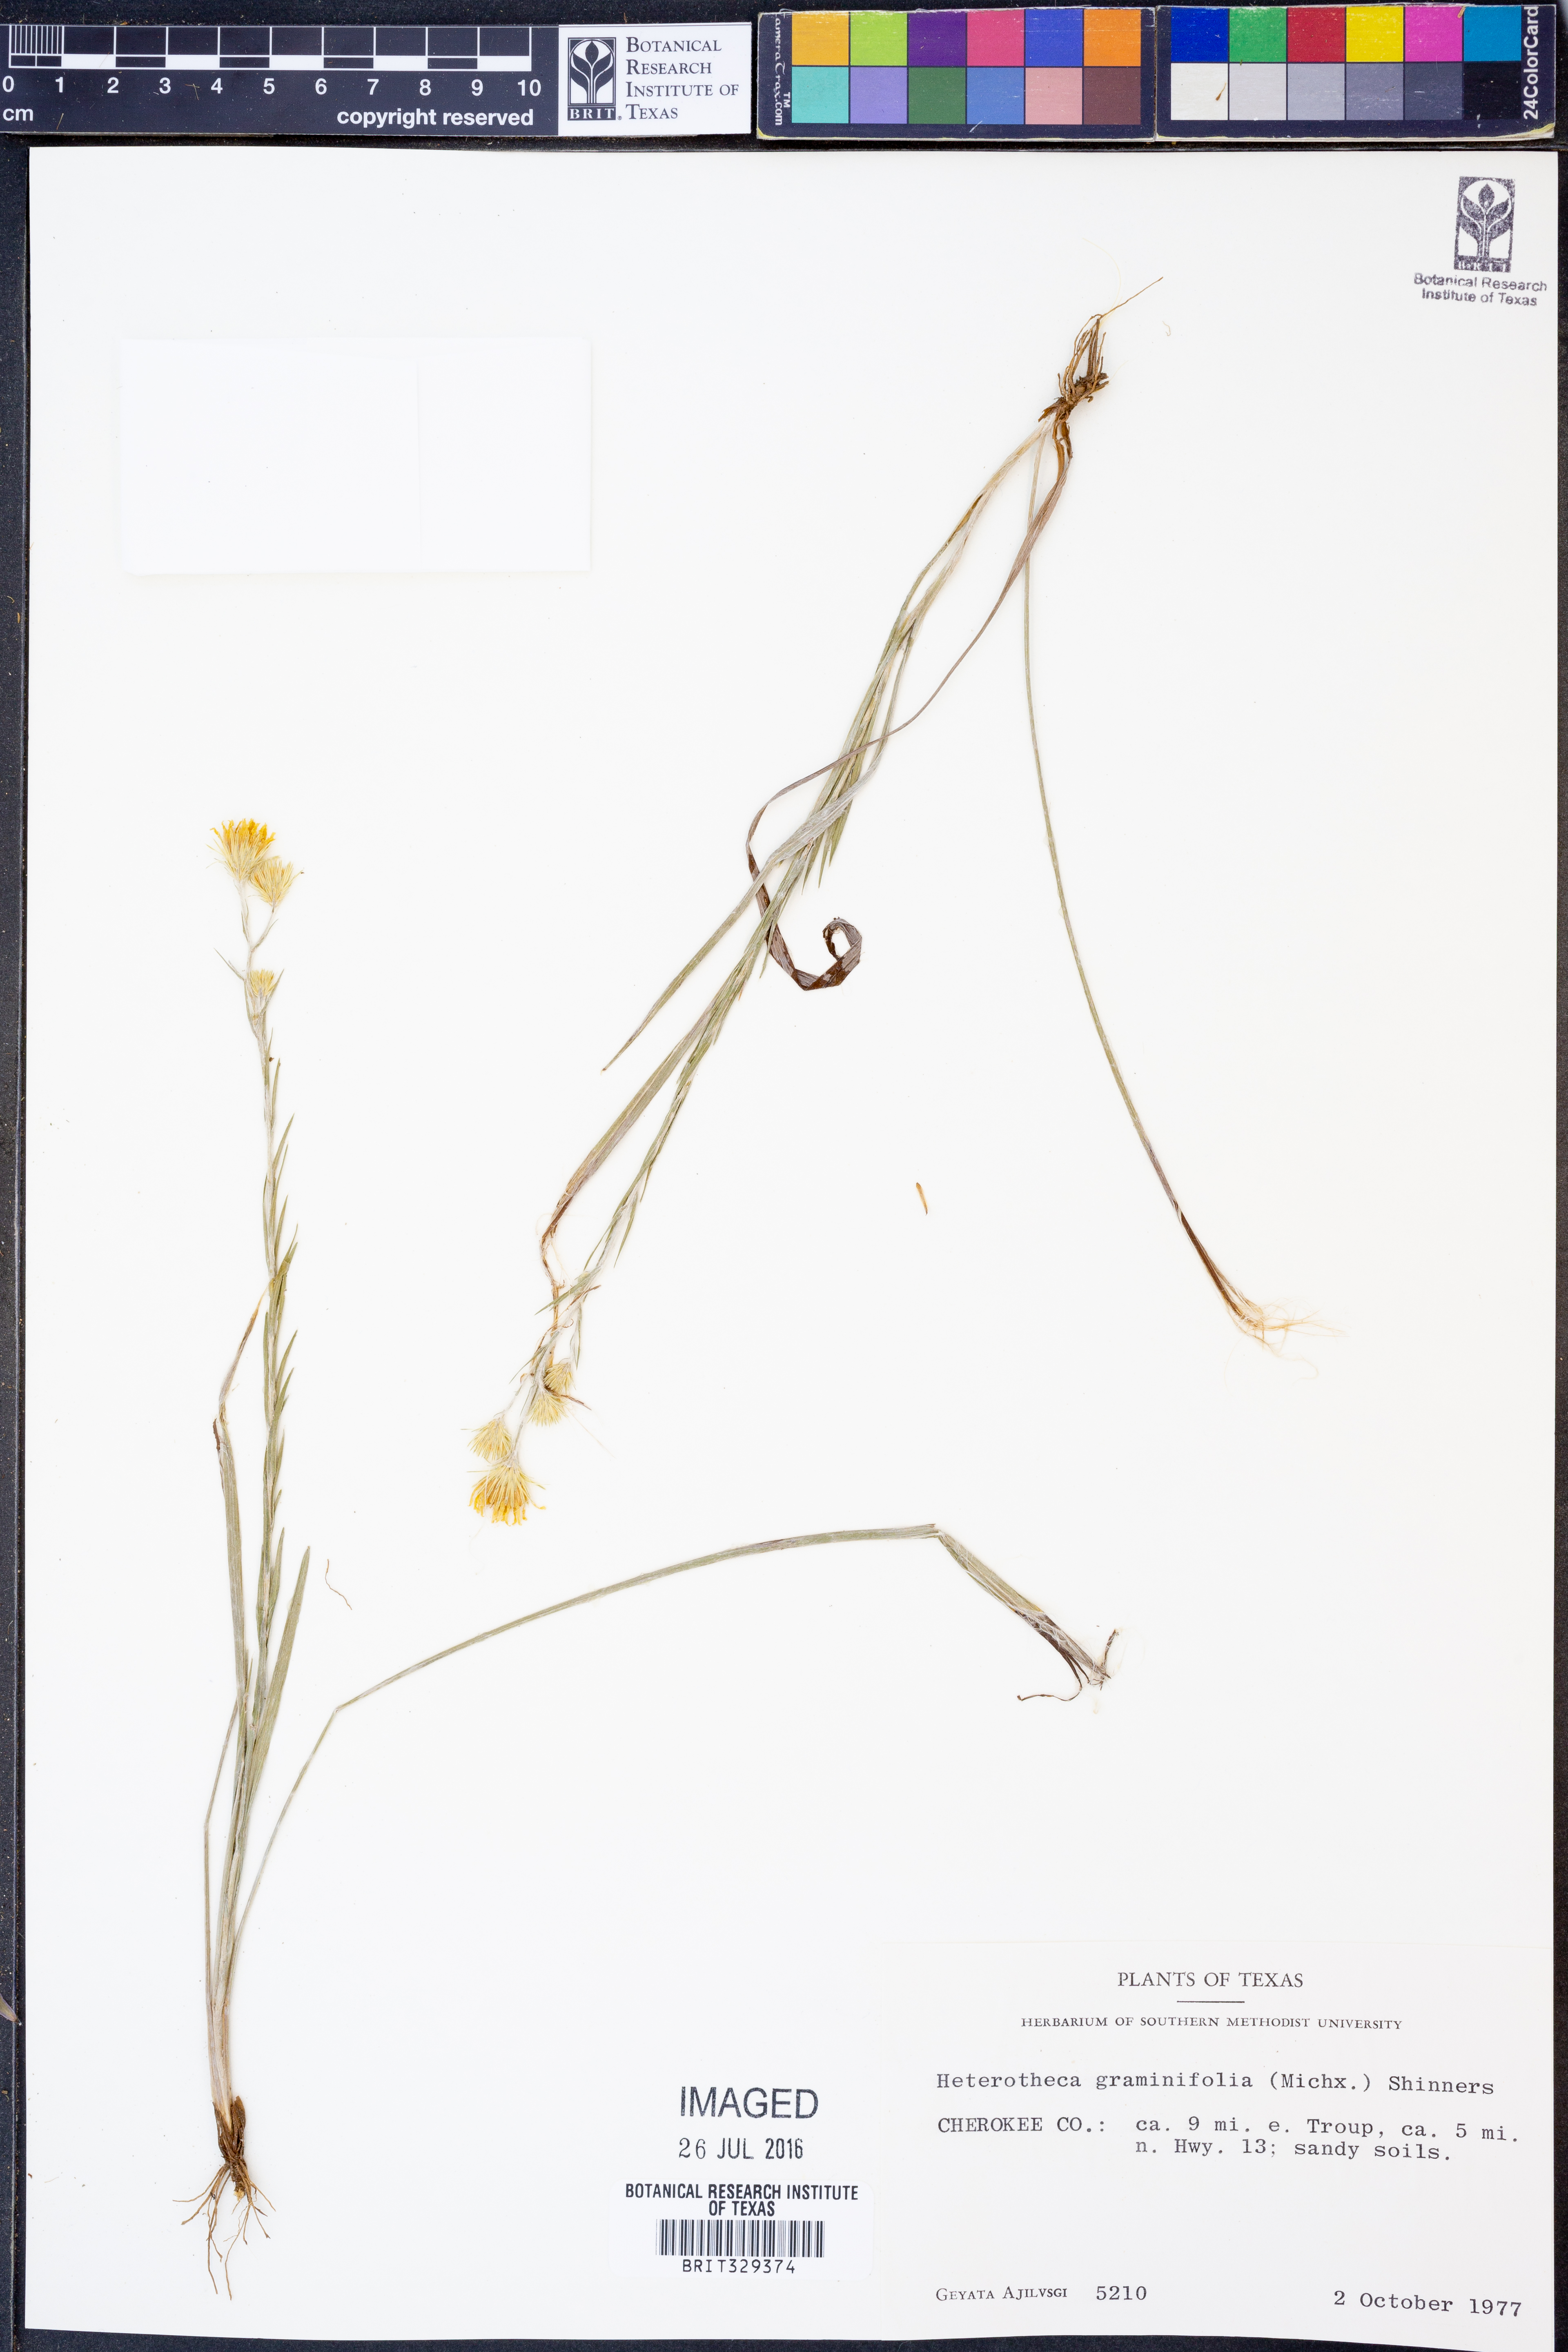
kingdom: Plantae
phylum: Tracheophyta
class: Magnoliopsida
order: Asterales
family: Asteraceae
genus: Pityopsis
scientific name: Pityopsis graminifolia
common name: Grass-leaf golden-aster
